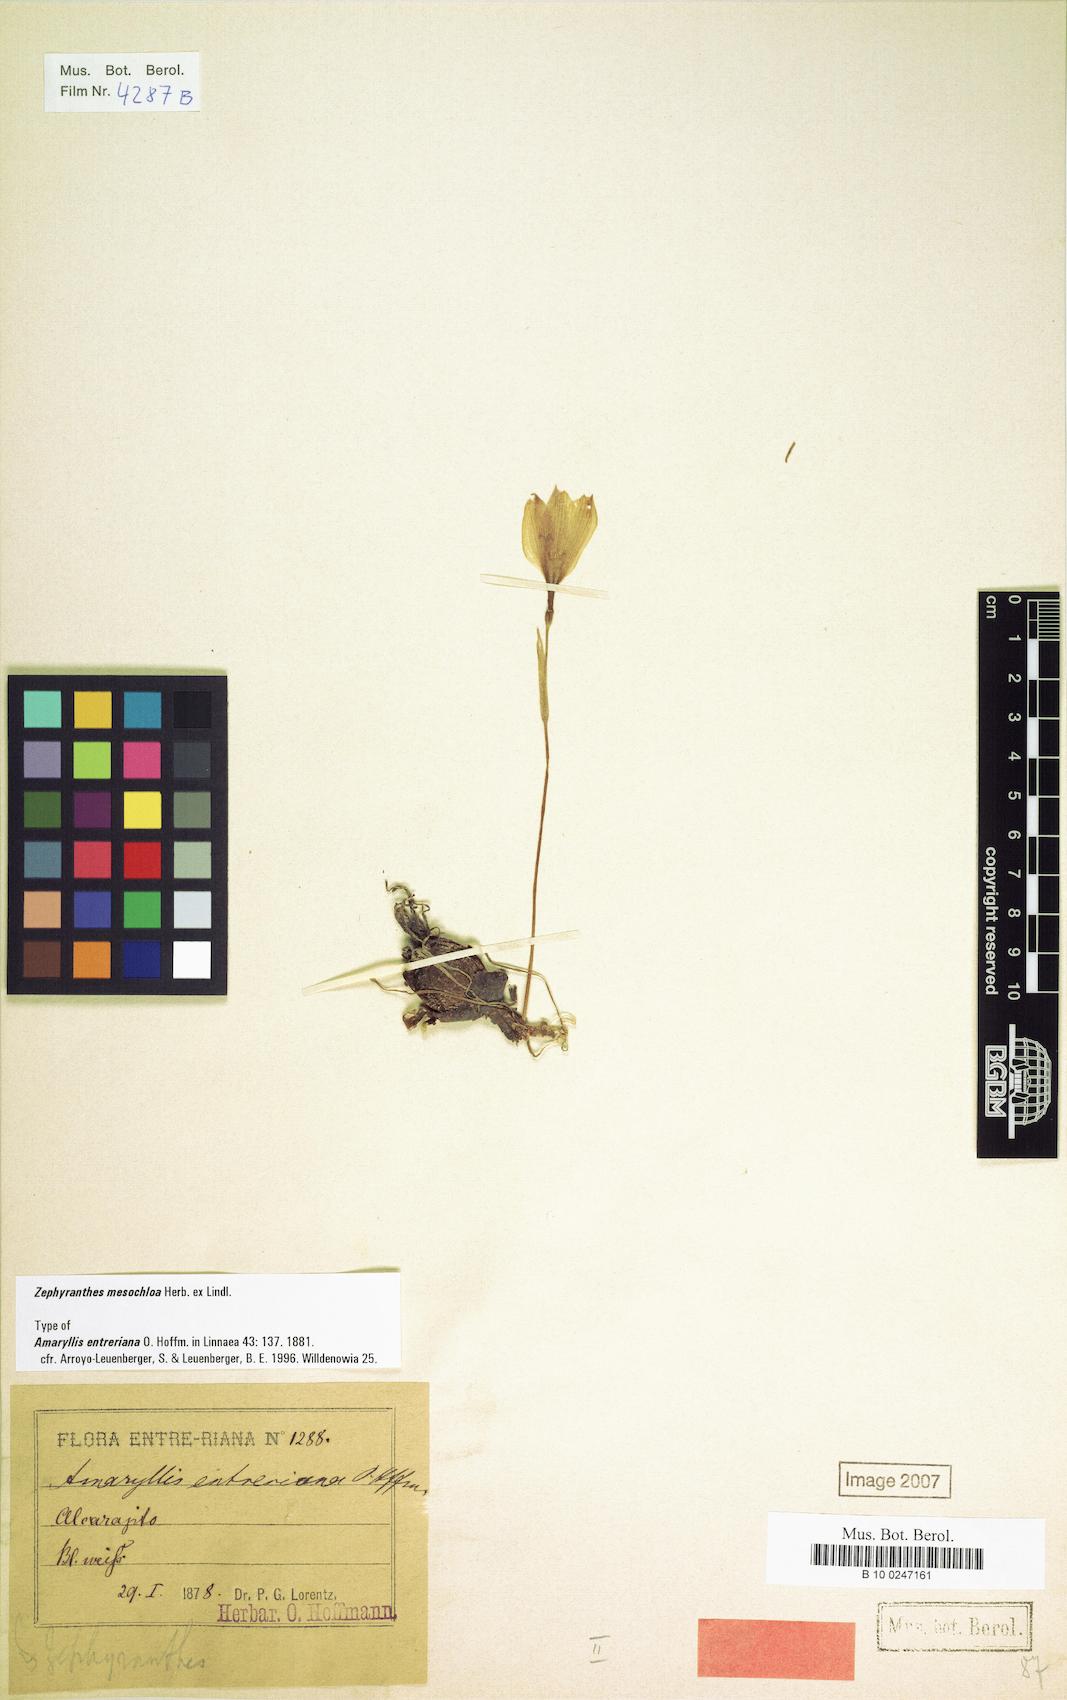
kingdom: Plantae
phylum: Tracheophyta
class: Liliopsida
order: Asparagales
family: Amaryllidaceae
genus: Zephyranthes
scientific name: Zephyranthes mesochloa
